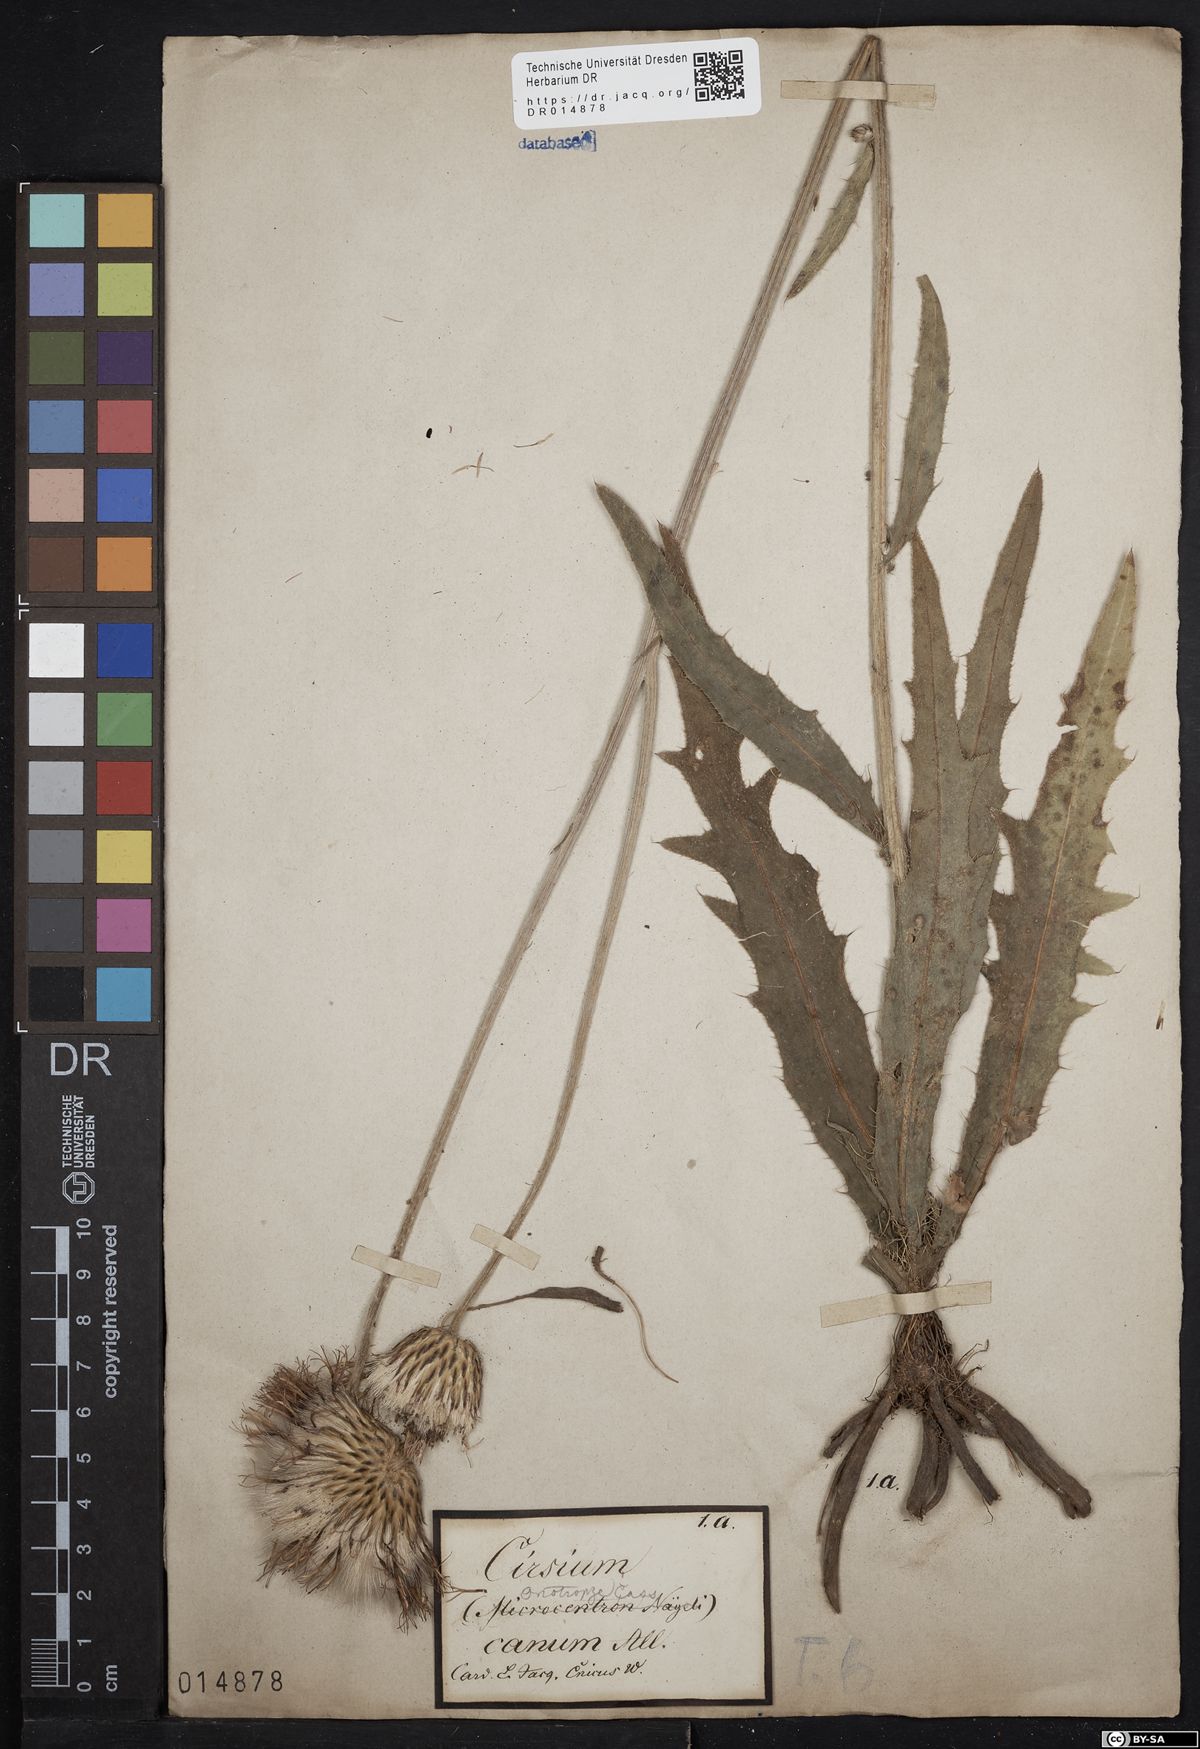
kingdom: Plantae
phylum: Tracheophyta
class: Magnoliopsida
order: Asterales
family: Asteraceae
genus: Cirsium
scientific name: Cirsium canum
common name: Queen anne's thistle
